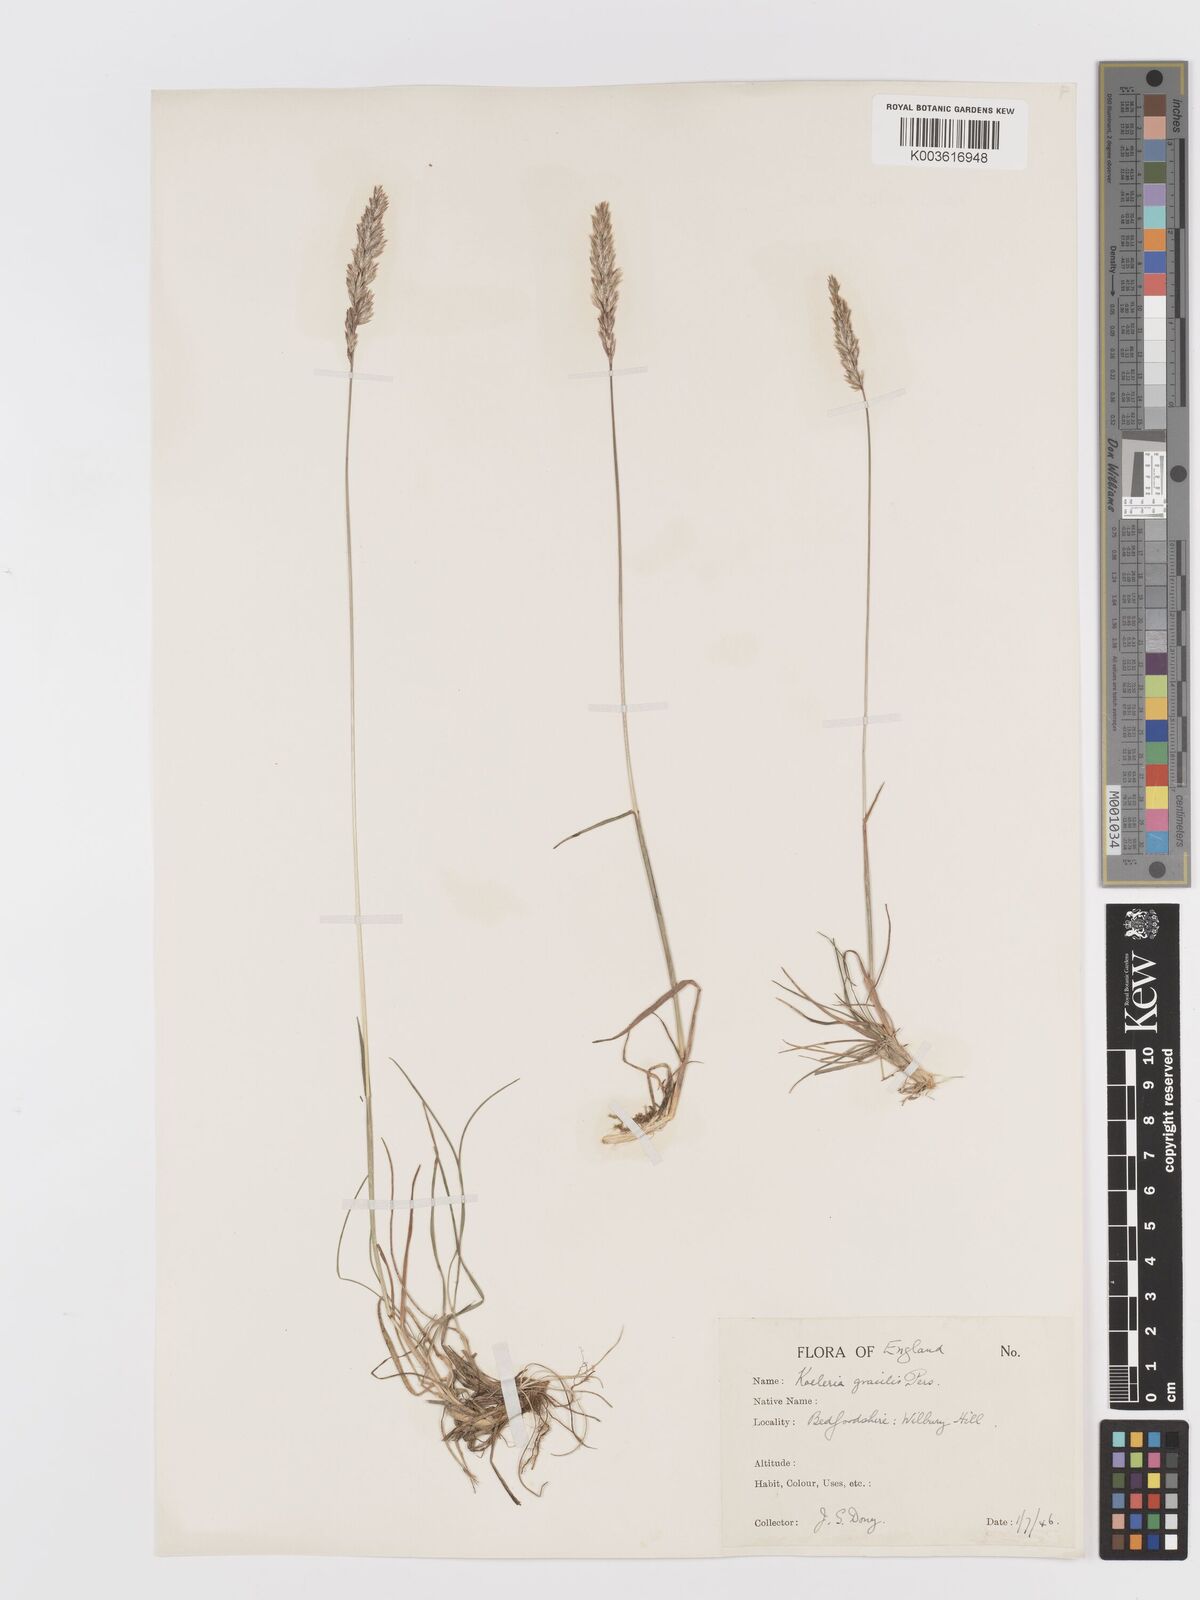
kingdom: Plantae
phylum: Tracheophyta
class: Liliopsida
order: Poales
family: Poaceae
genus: Koeleria
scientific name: Koeleria macrantha
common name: Crested hair-grass
